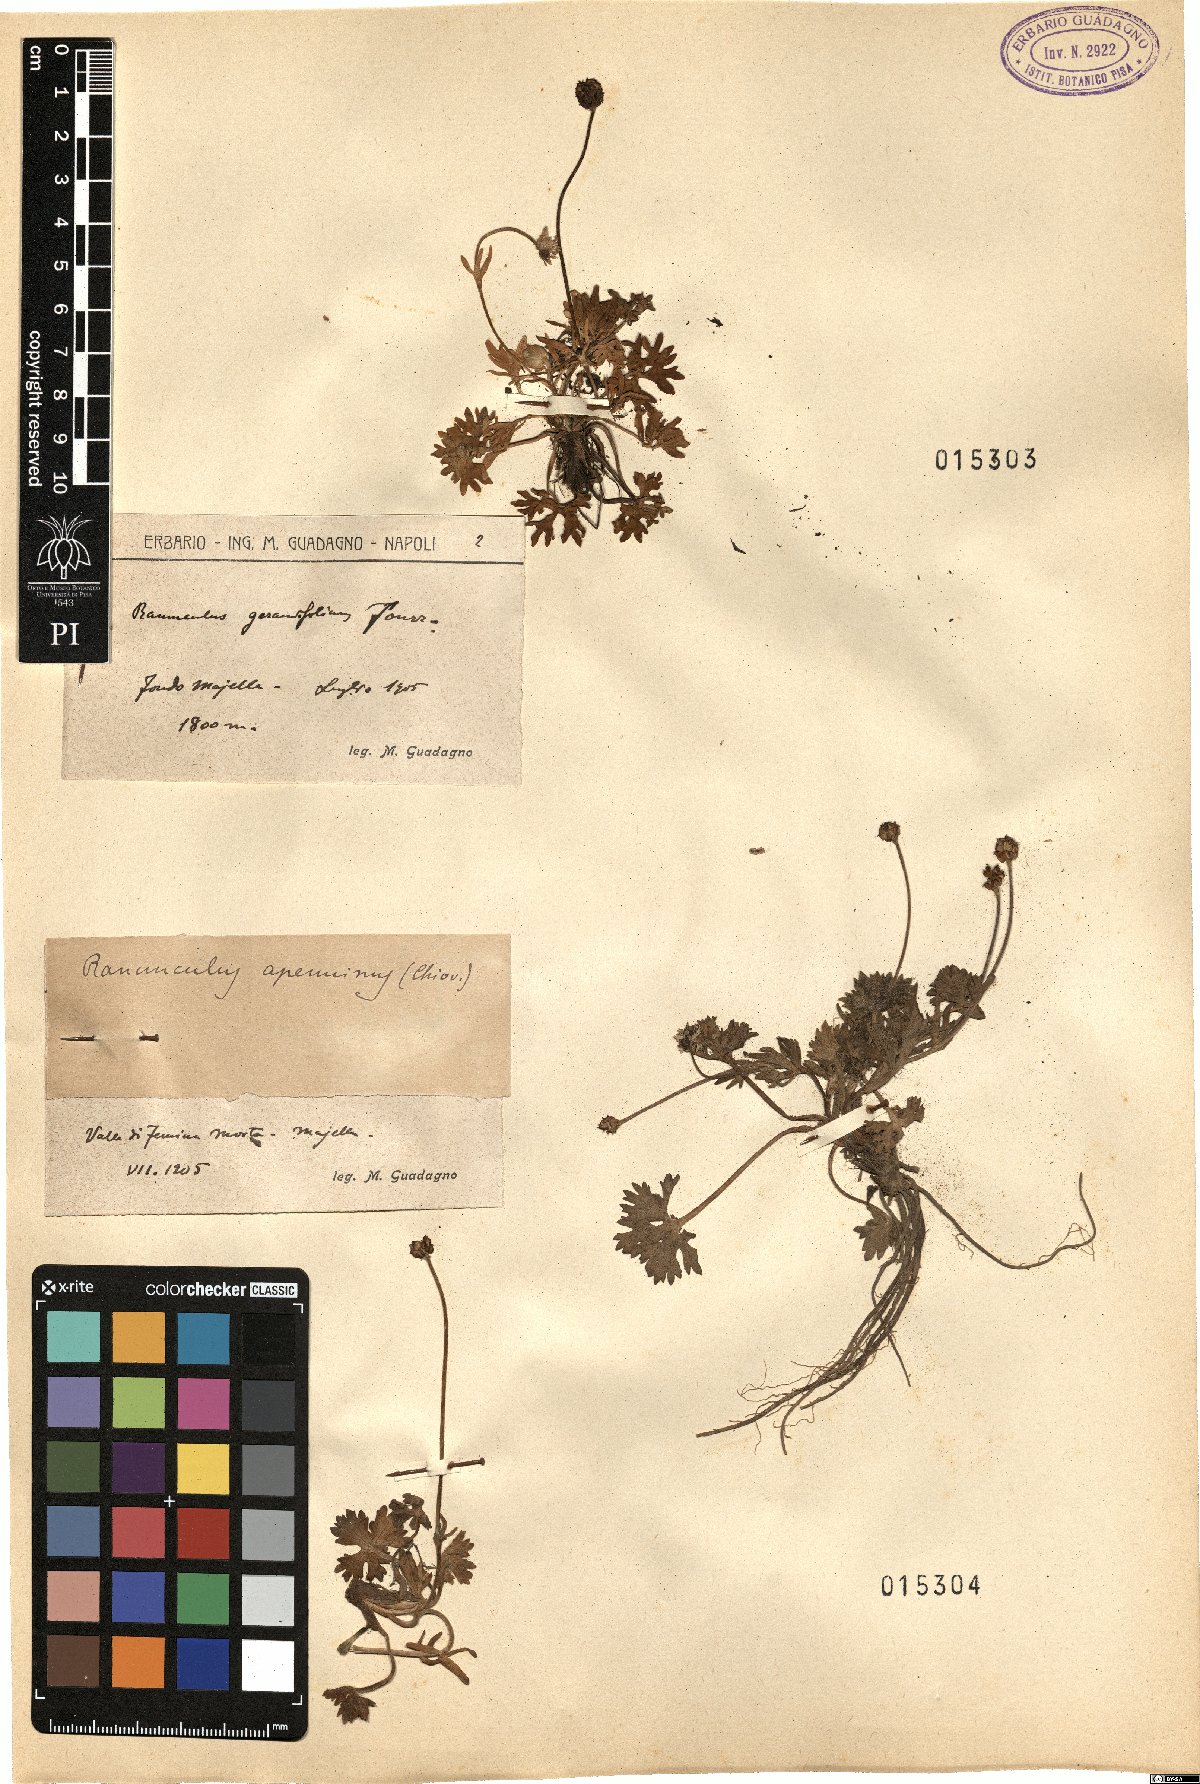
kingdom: Plantae
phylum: Tracheophyta
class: Magnoliopsida
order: Ranunculales
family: Ranunculaceae
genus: Ranunculus
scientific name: Ranunculus apenninus
